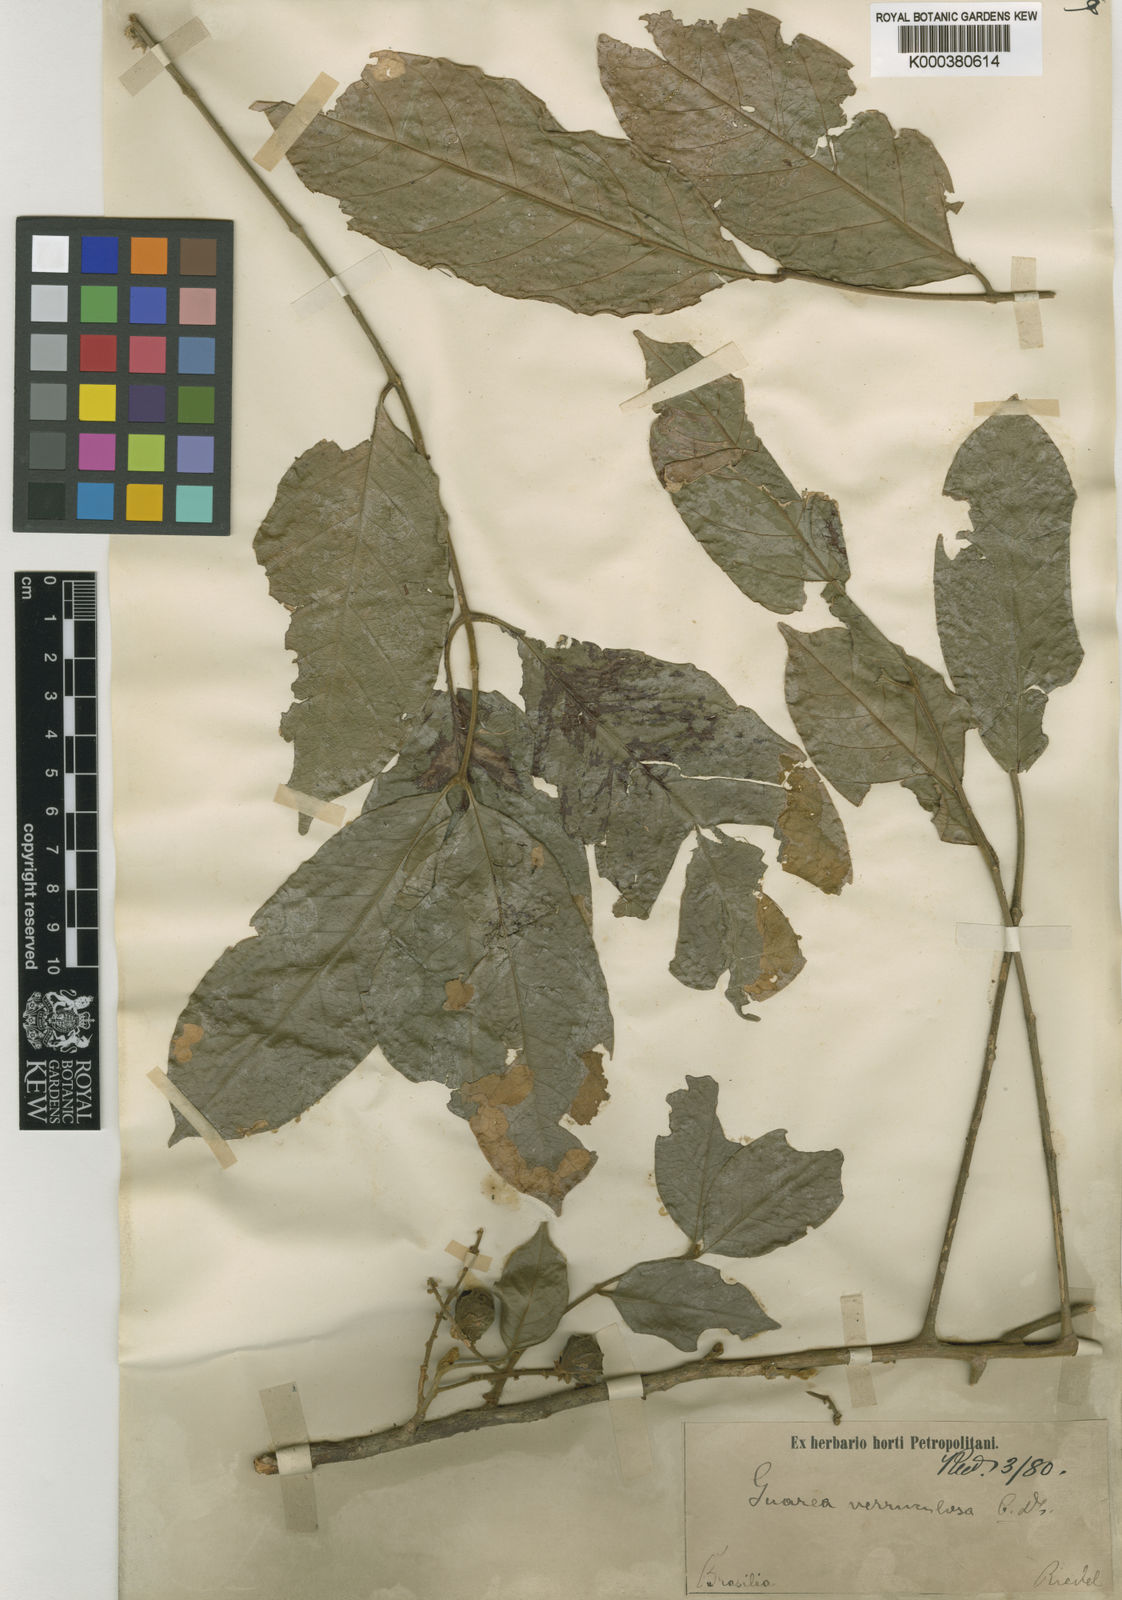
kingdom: Plantae
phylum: Tracheophyta
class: Magnoliopsida
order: Sapindales
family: Meliaceae
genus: Guarea
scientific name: Guarea macrophylla
